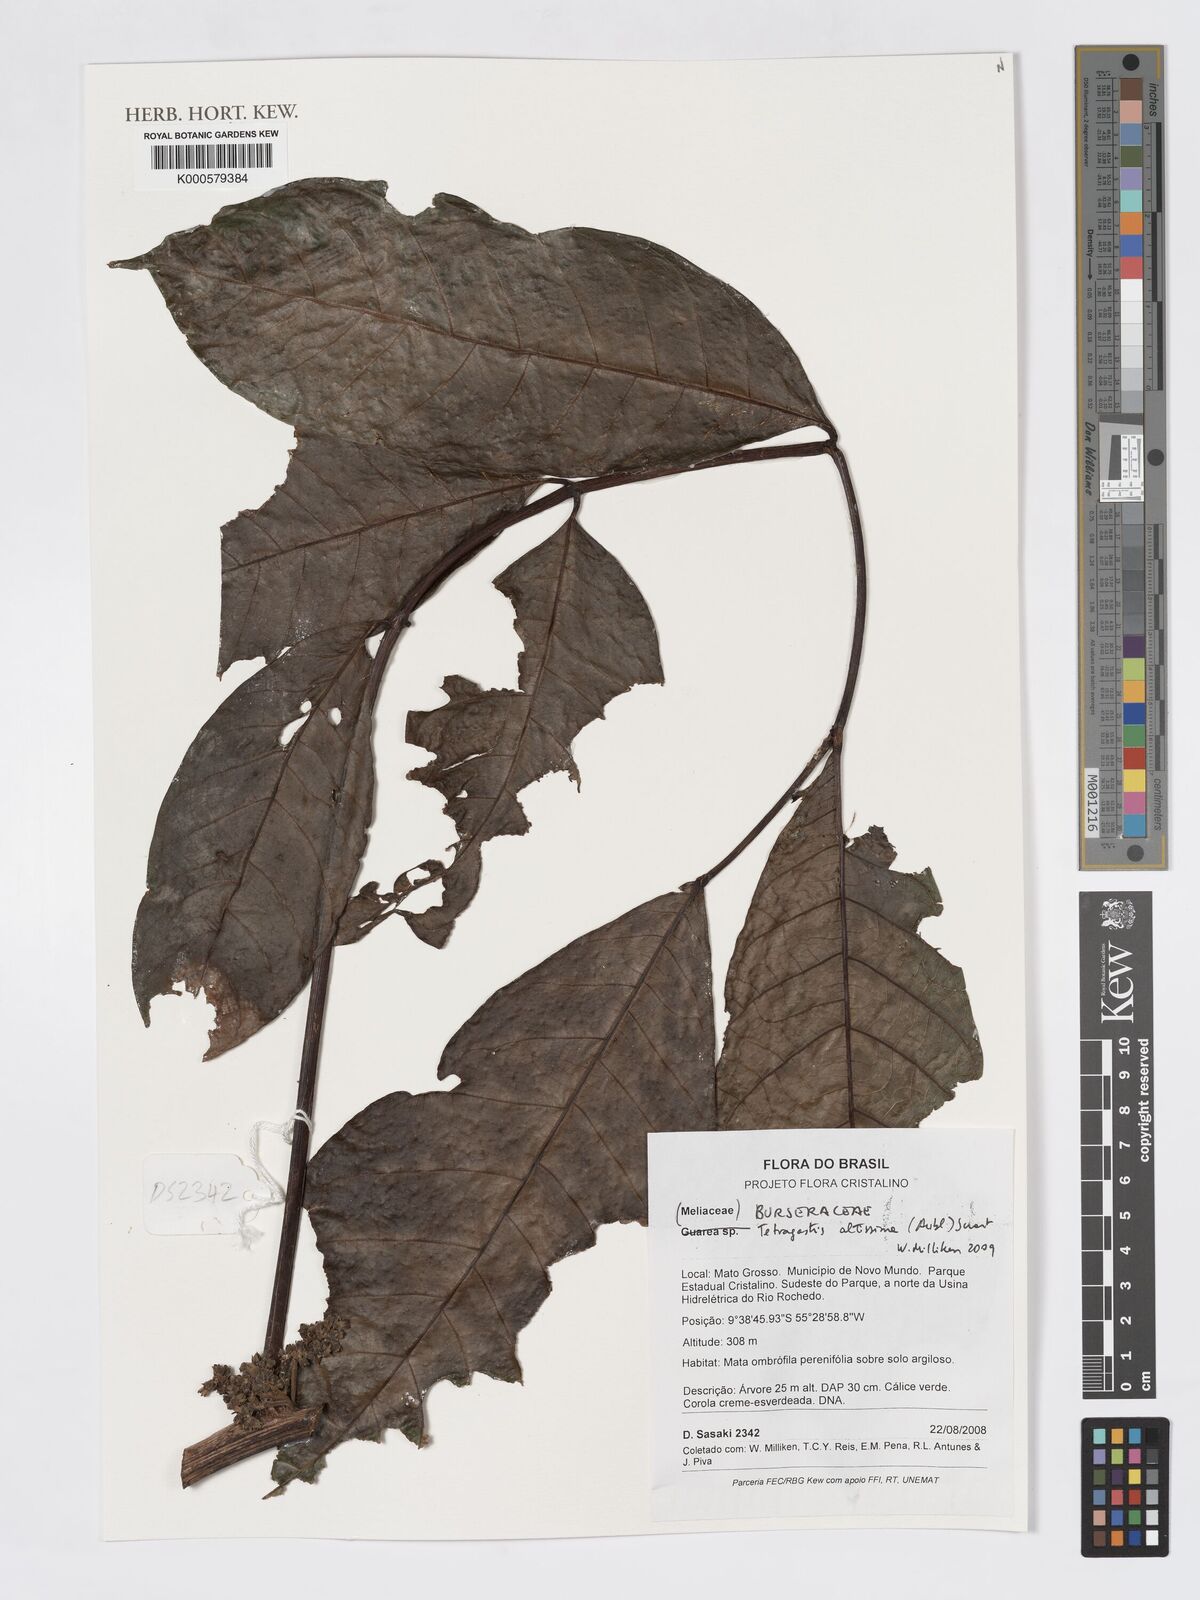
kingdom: Plantae
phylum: Tracheophyta
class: Magnoliopsida
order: Sapindales
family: Burseraceae
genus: Tetragastris
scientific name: Tetragastris altissima
